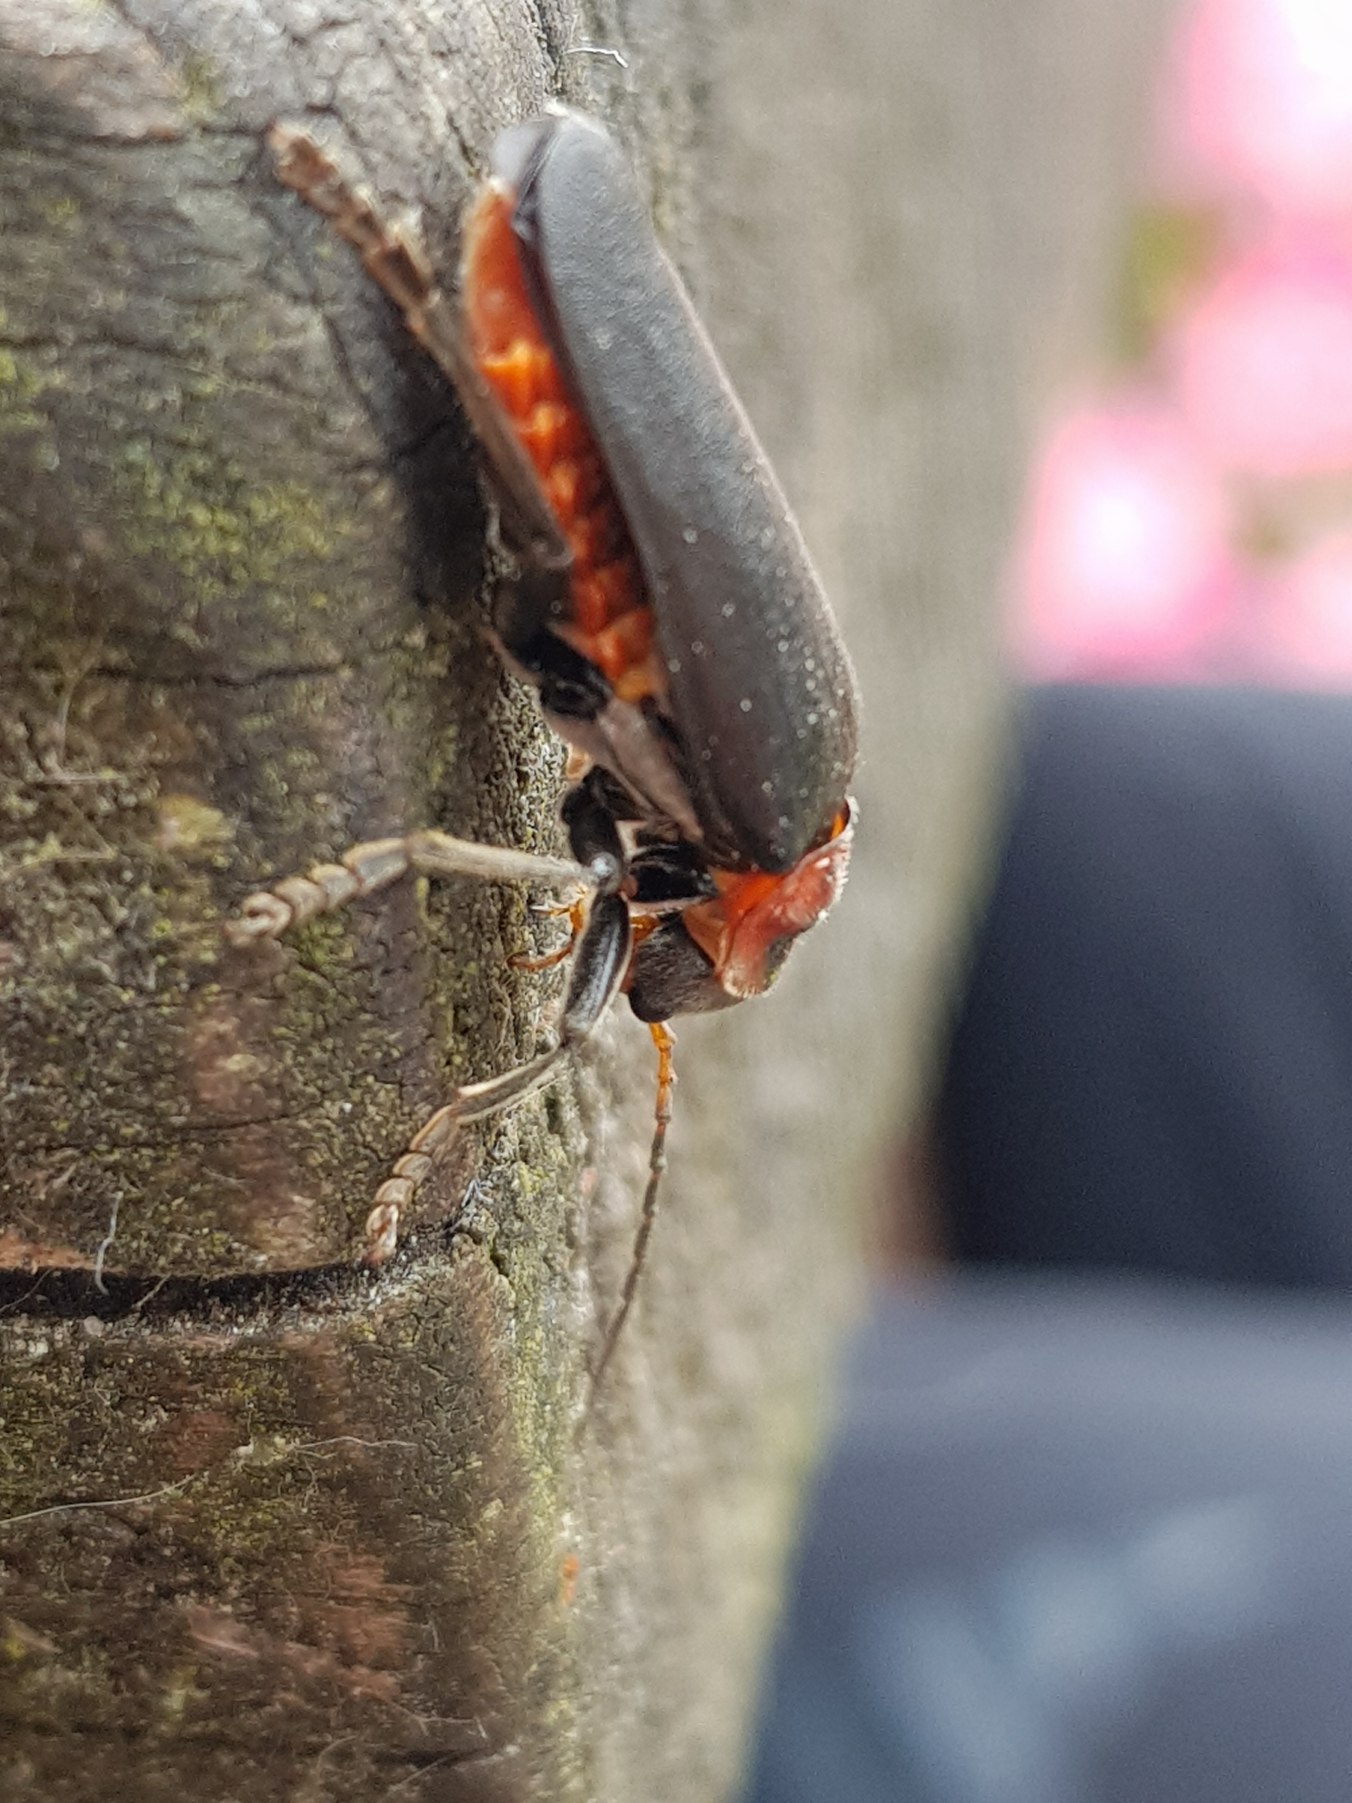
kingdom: Animalia
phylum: Arthropoda
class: Insecta
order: Coleoptera
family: Cantharidae
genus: Cantharis
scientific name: Cantharis fusca
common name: Stor blødvinge
